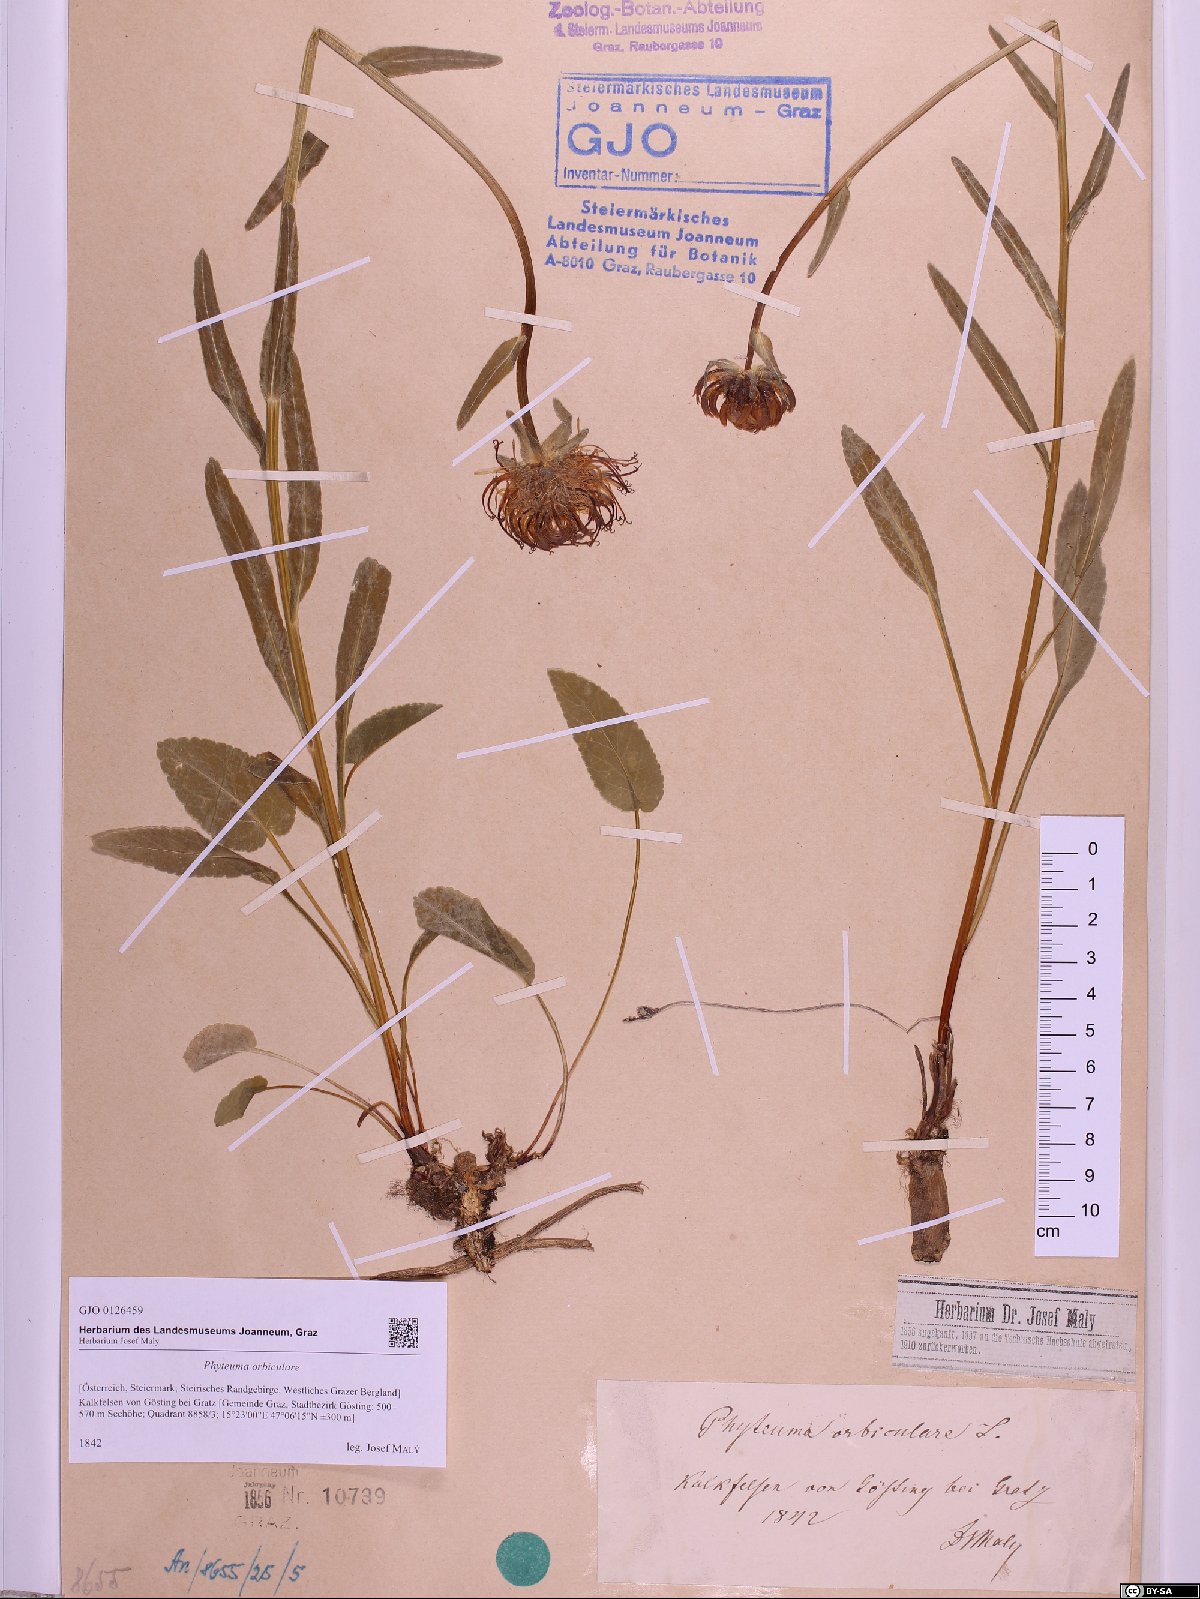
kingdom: Plantae
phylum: Tracheophyta
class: Magnoliopsida
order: Asterales
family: Campanulaceae
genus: Phyteuma
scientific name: Phyteuma orbiculare
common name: Round-headed rampion
